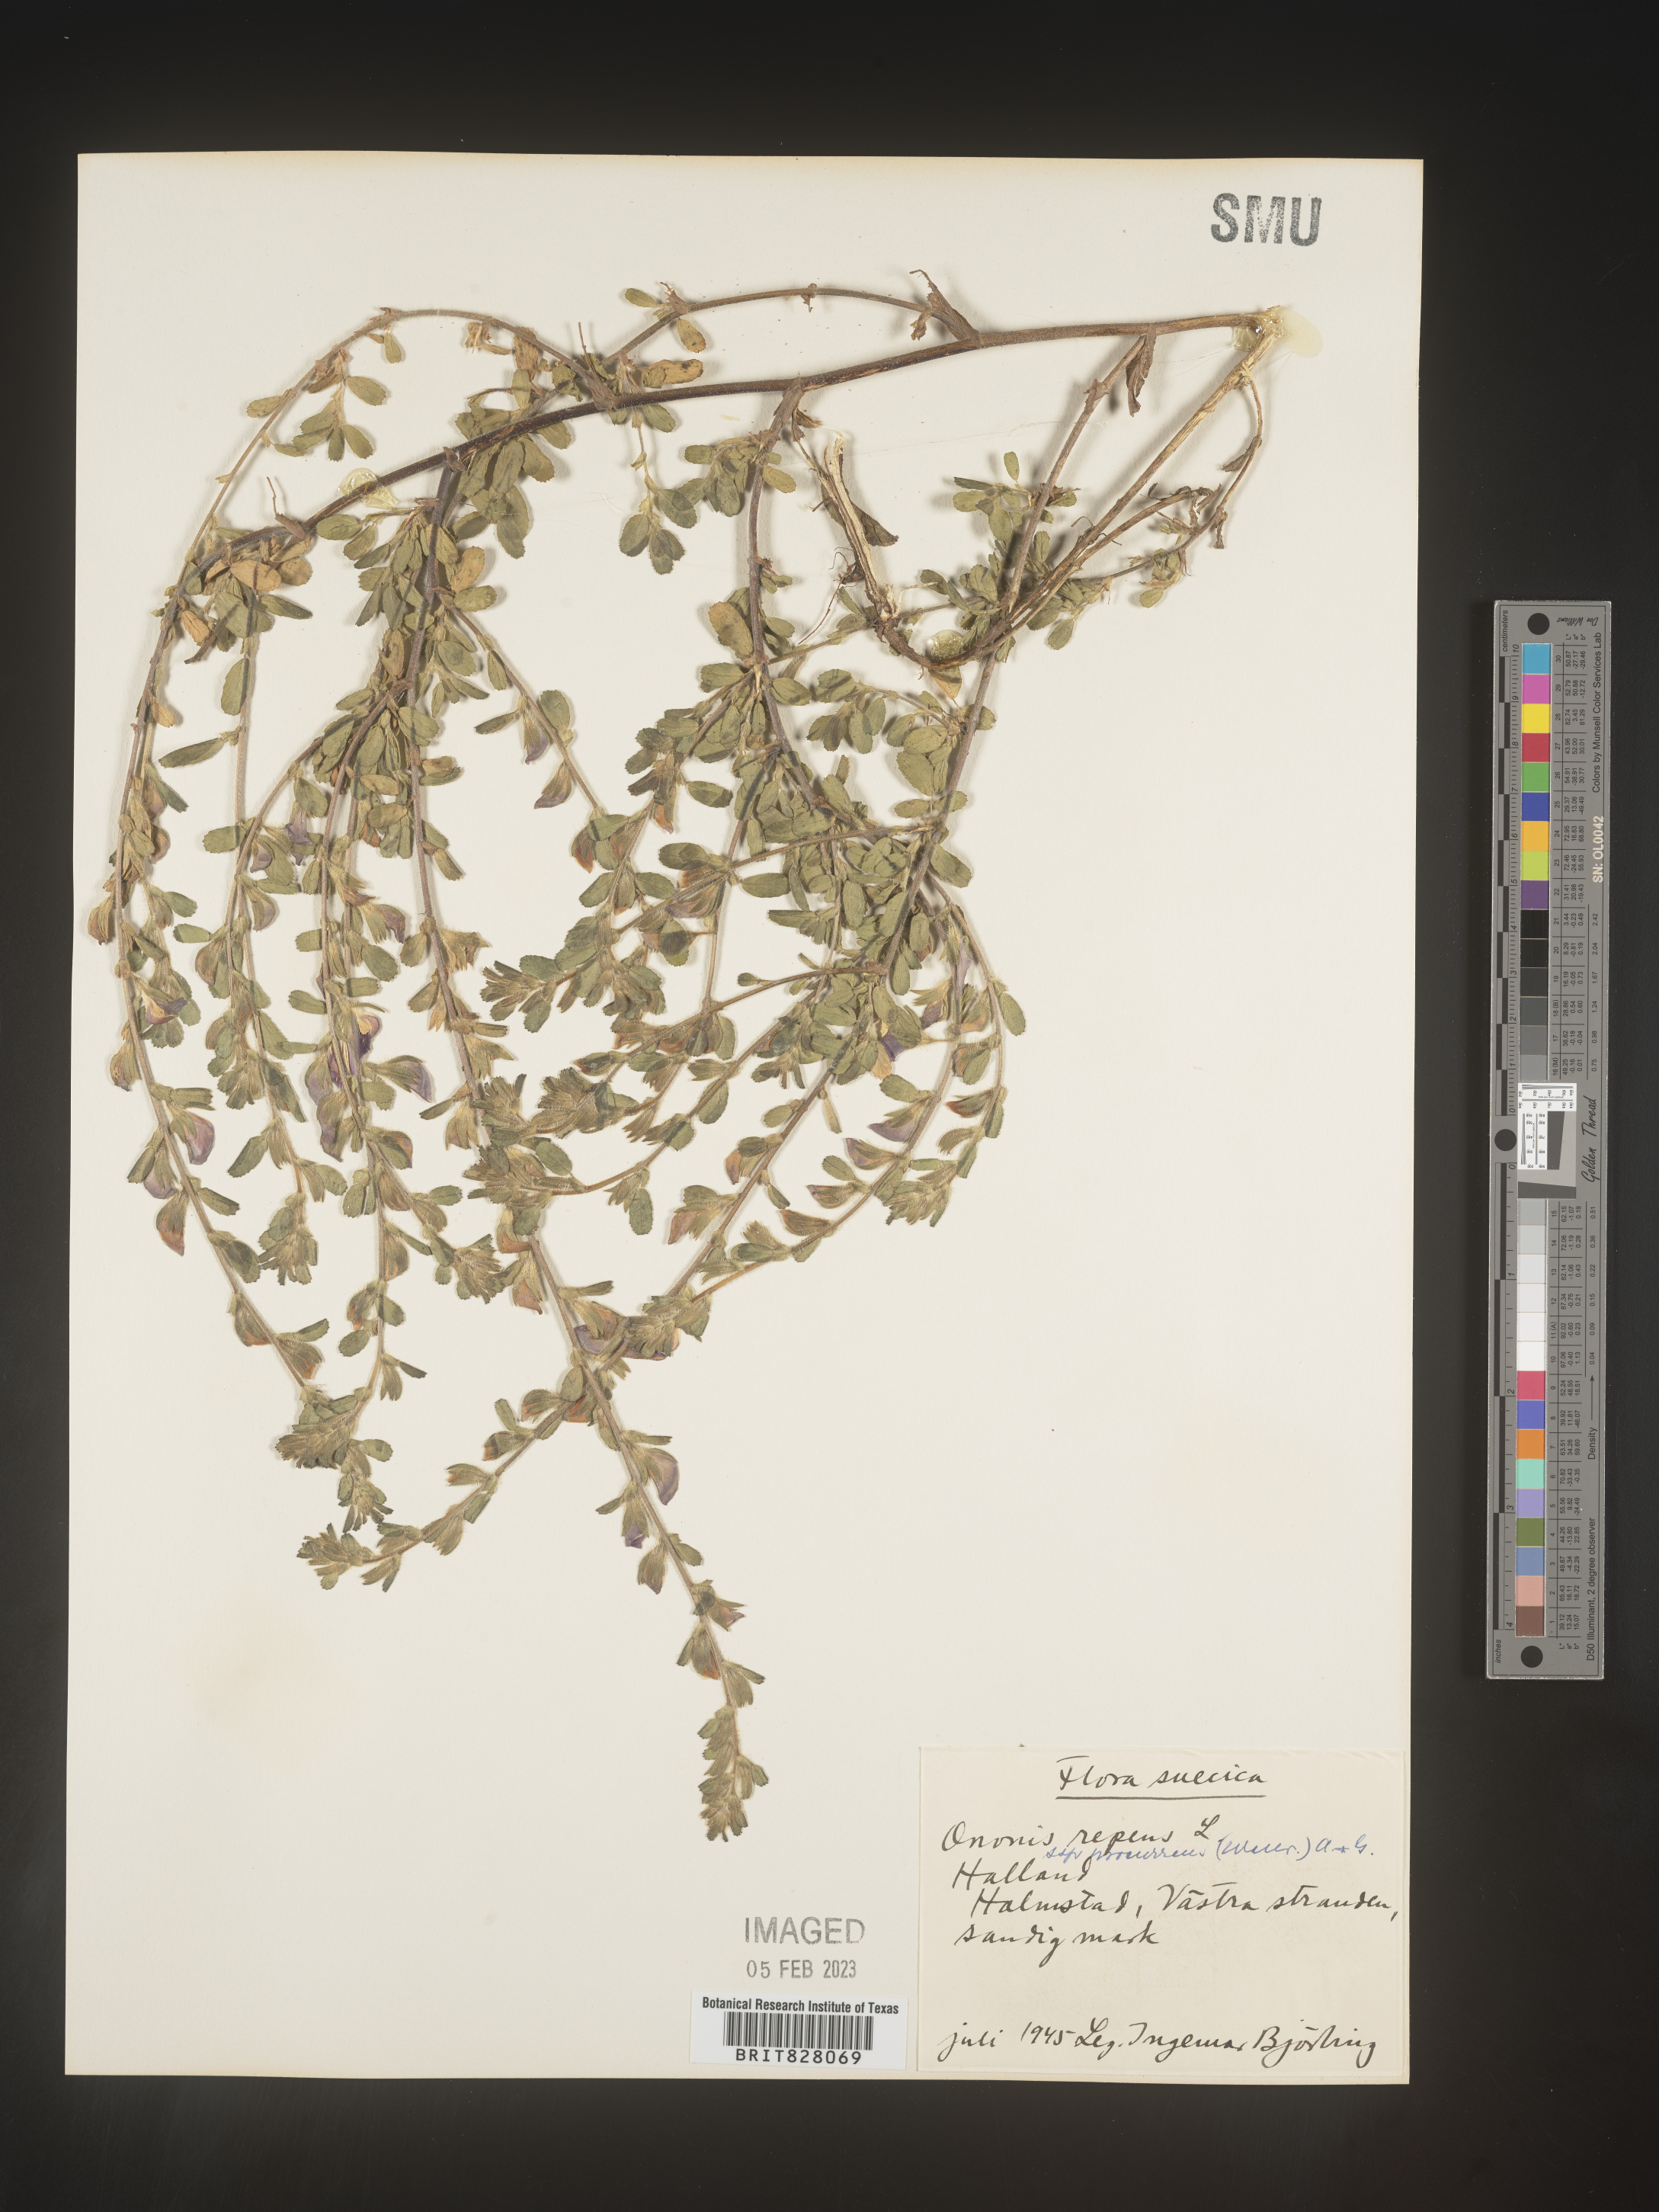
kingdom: Plantae
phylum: Tracheophyta
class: Magnoliopsida
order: Fabales
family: Fabaceae
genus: Ononis
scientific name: Ononis
